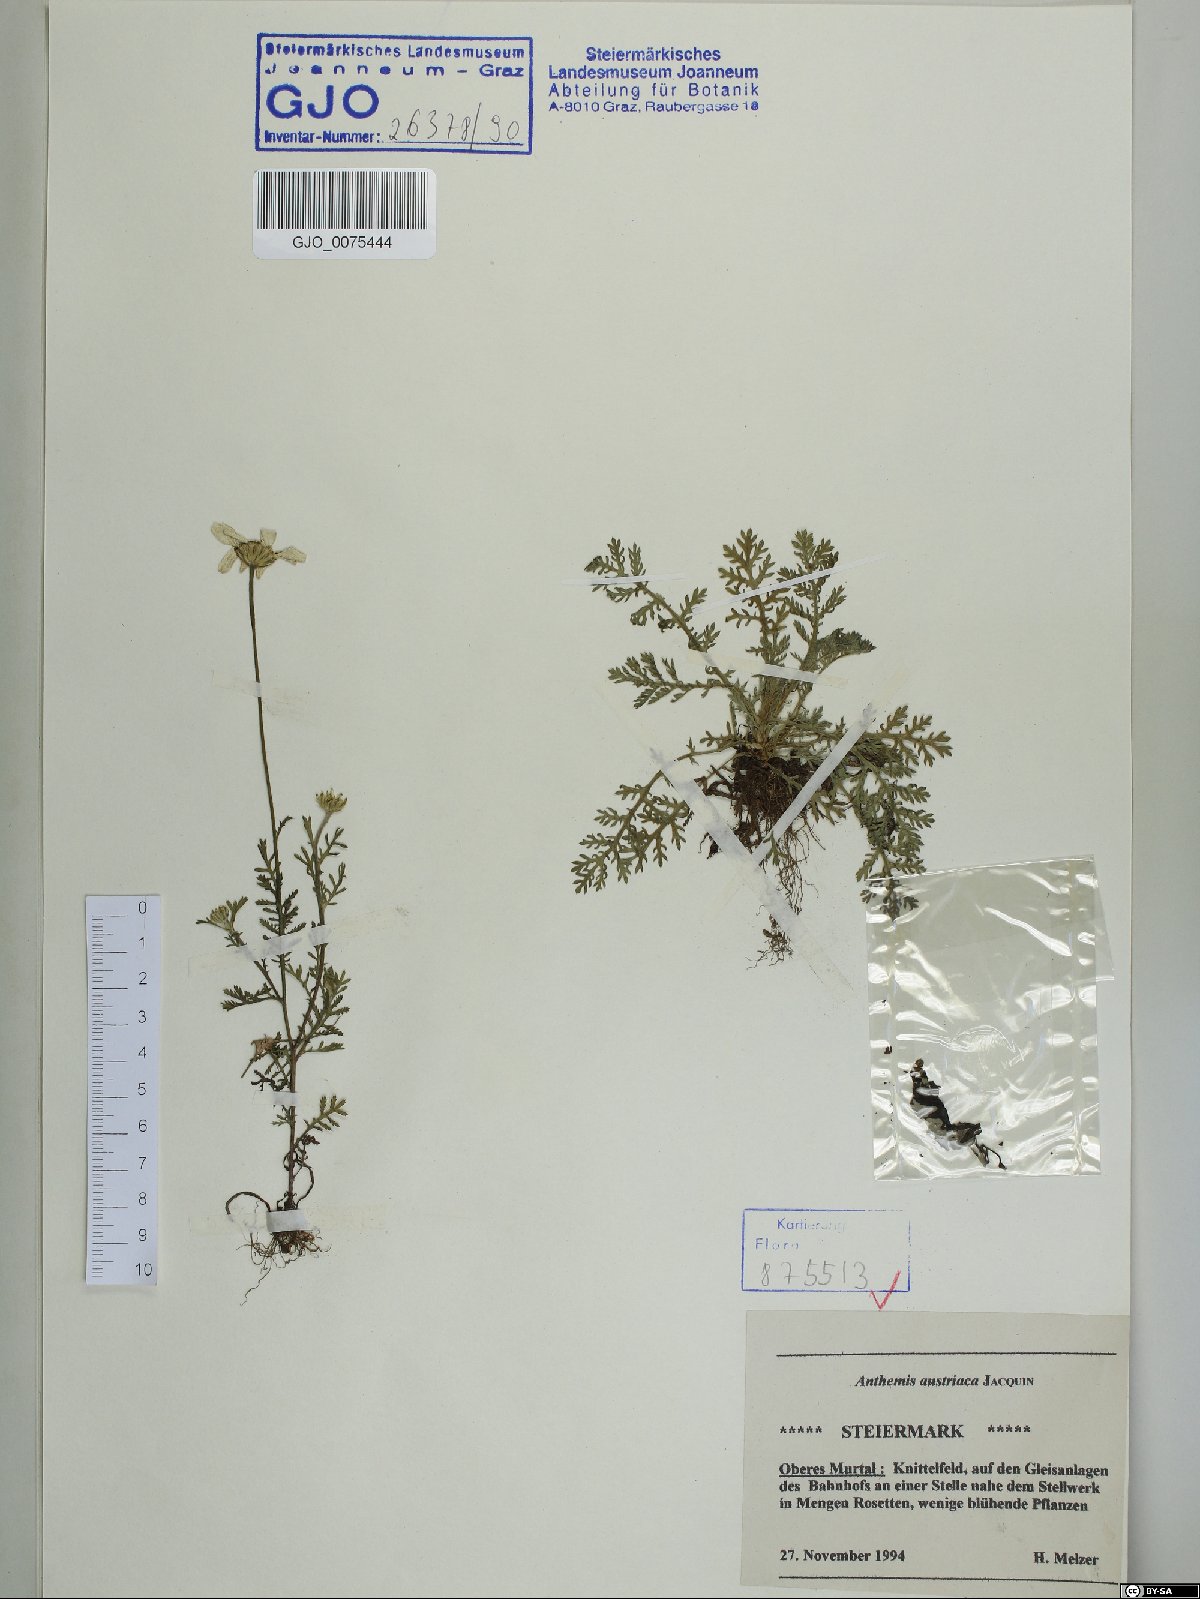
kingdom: Plantae
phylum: Tracheophyta
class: Magnoliopsida
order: Asterales
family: Asteraceae
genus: Cota
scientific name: Cota austriaca
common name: Austrian chamomile
